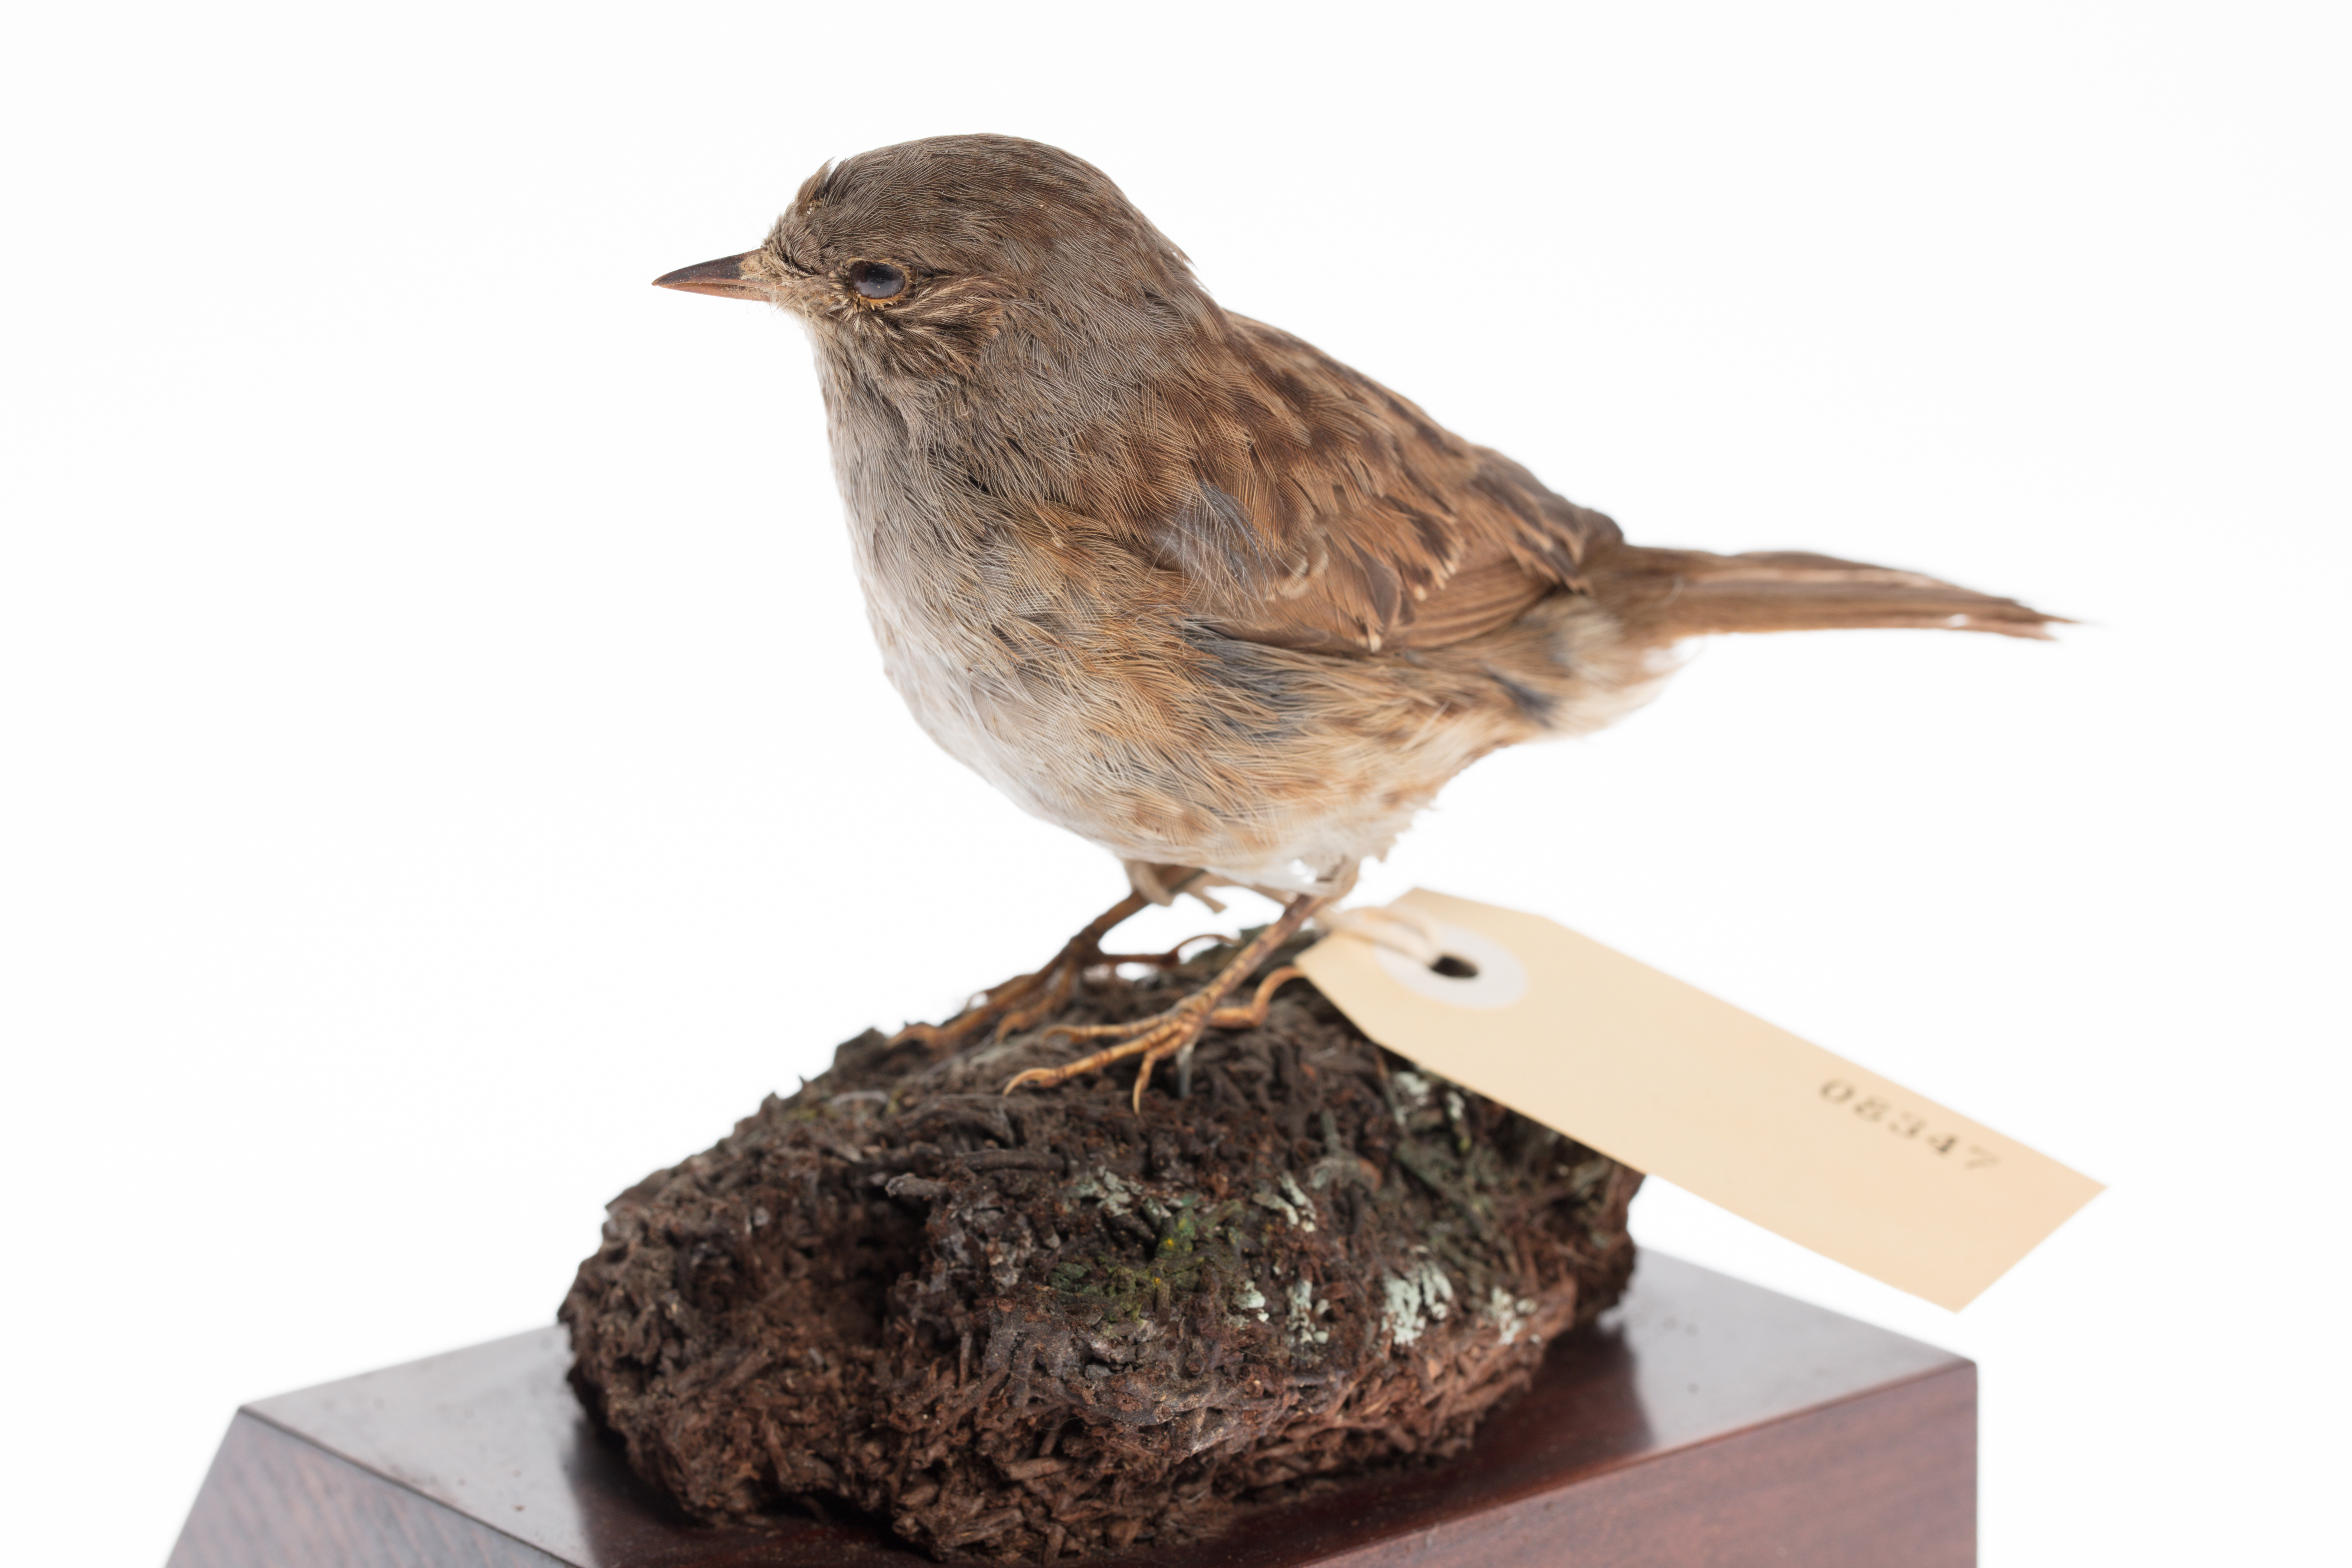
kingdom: Animalia
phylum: Chordata
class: Aves
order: Passeriformes
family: Prunellidae
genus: Prunella
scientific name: Prunella modularis
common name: Dunnock
